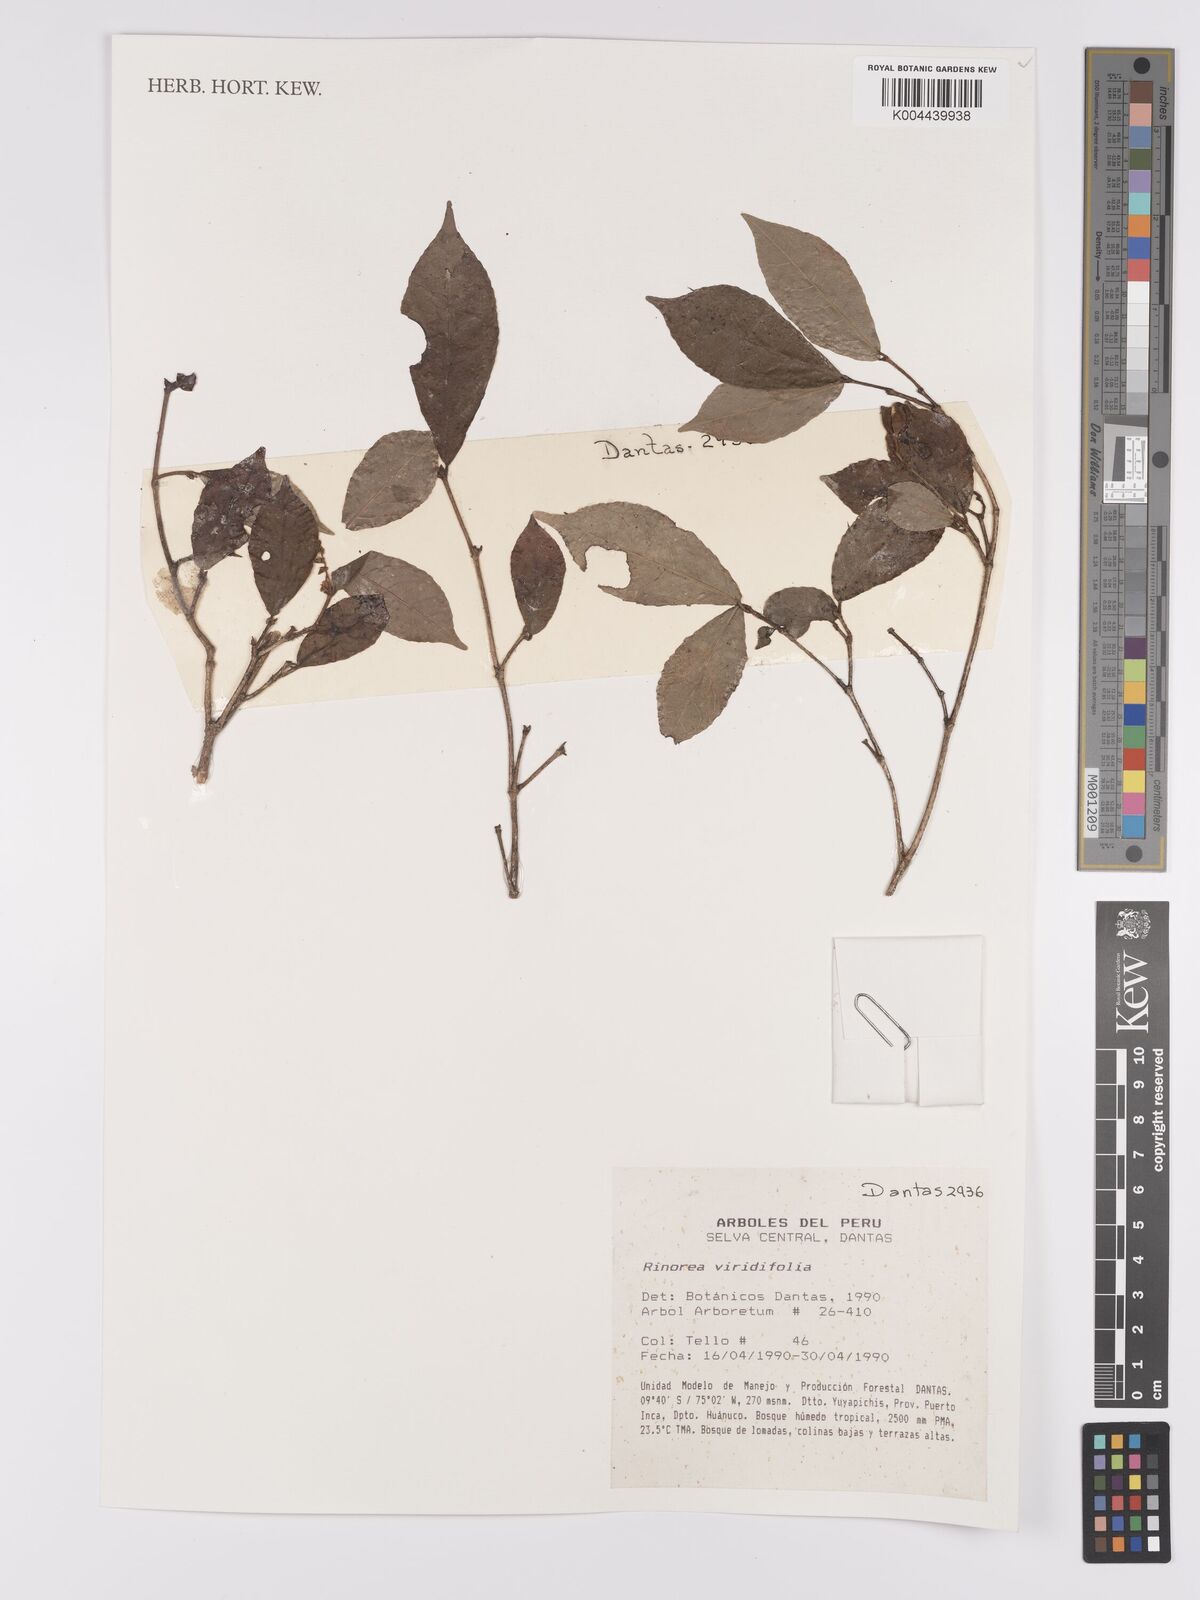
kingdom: Plantae
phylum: Tracheophyta
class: Magnoliopsida
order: Malpighiales
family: Violaceae
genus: Rinorea
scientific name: Rinorea viridifolia
